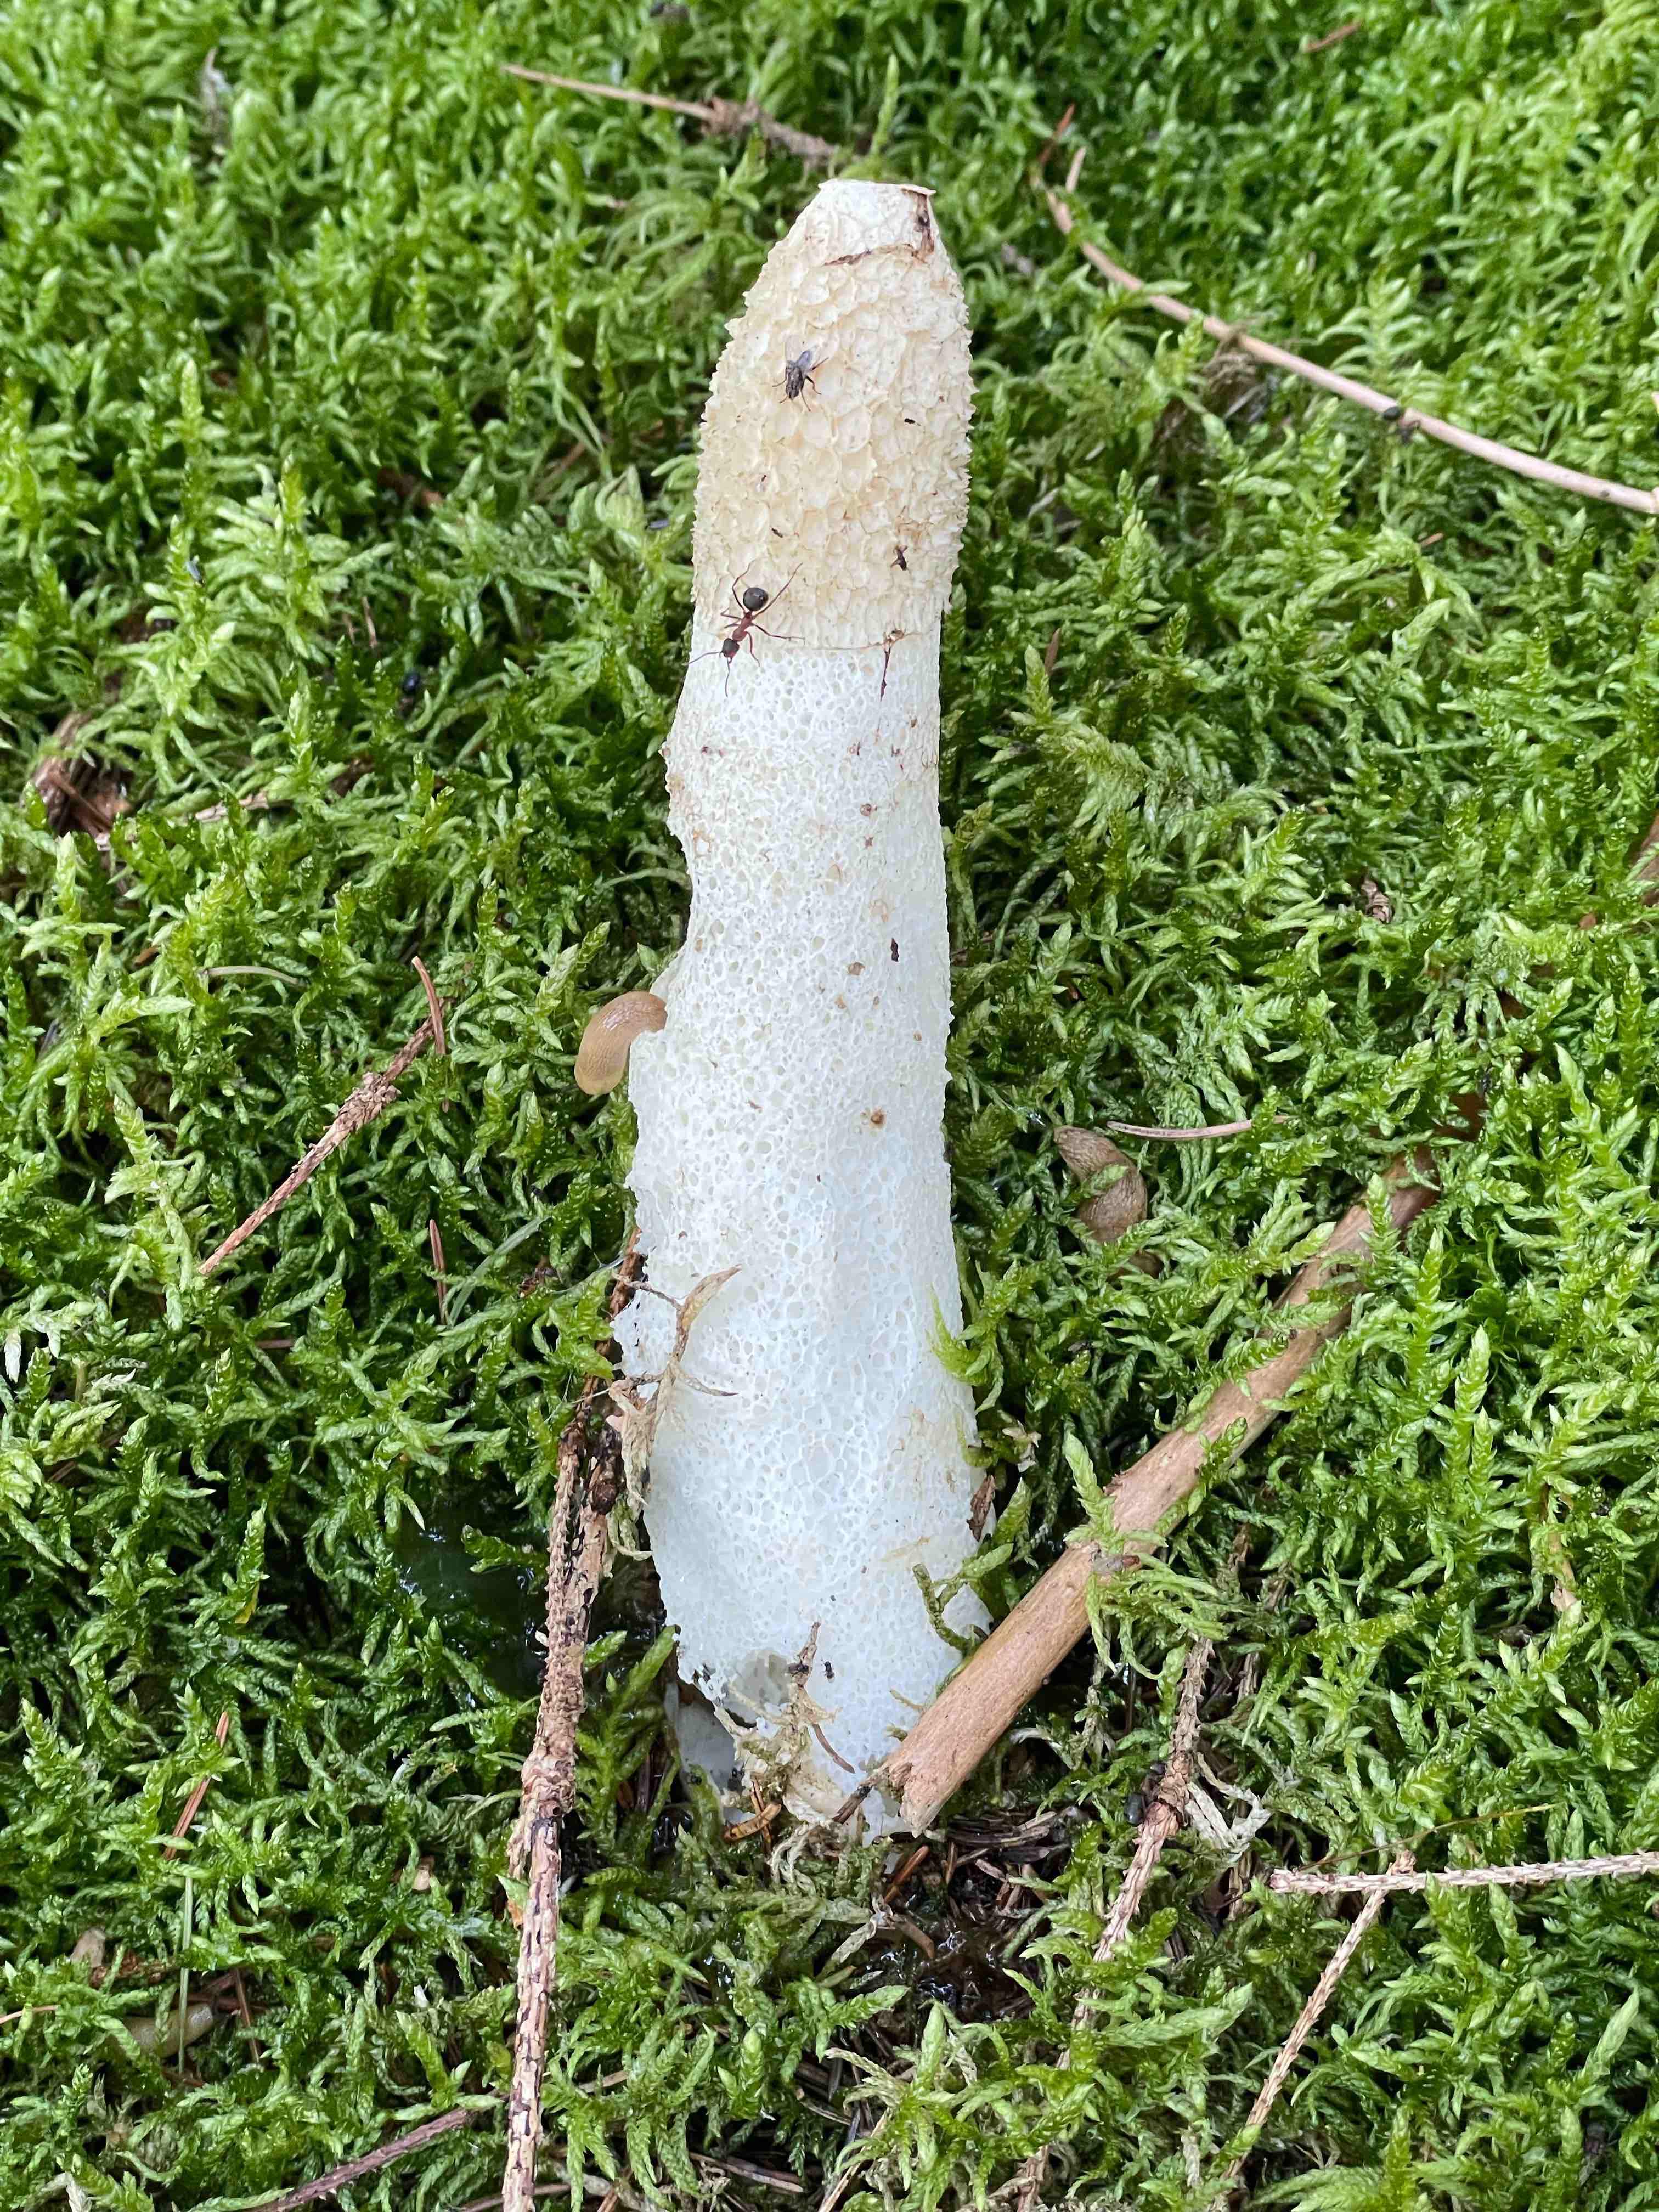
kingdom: Fungi
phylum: Basidiomycota
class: Agaricomycetes
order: Phallales
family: Phallaceae
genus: Phallus
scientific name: Phallus impudicus
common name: almindelig stinksvamp
